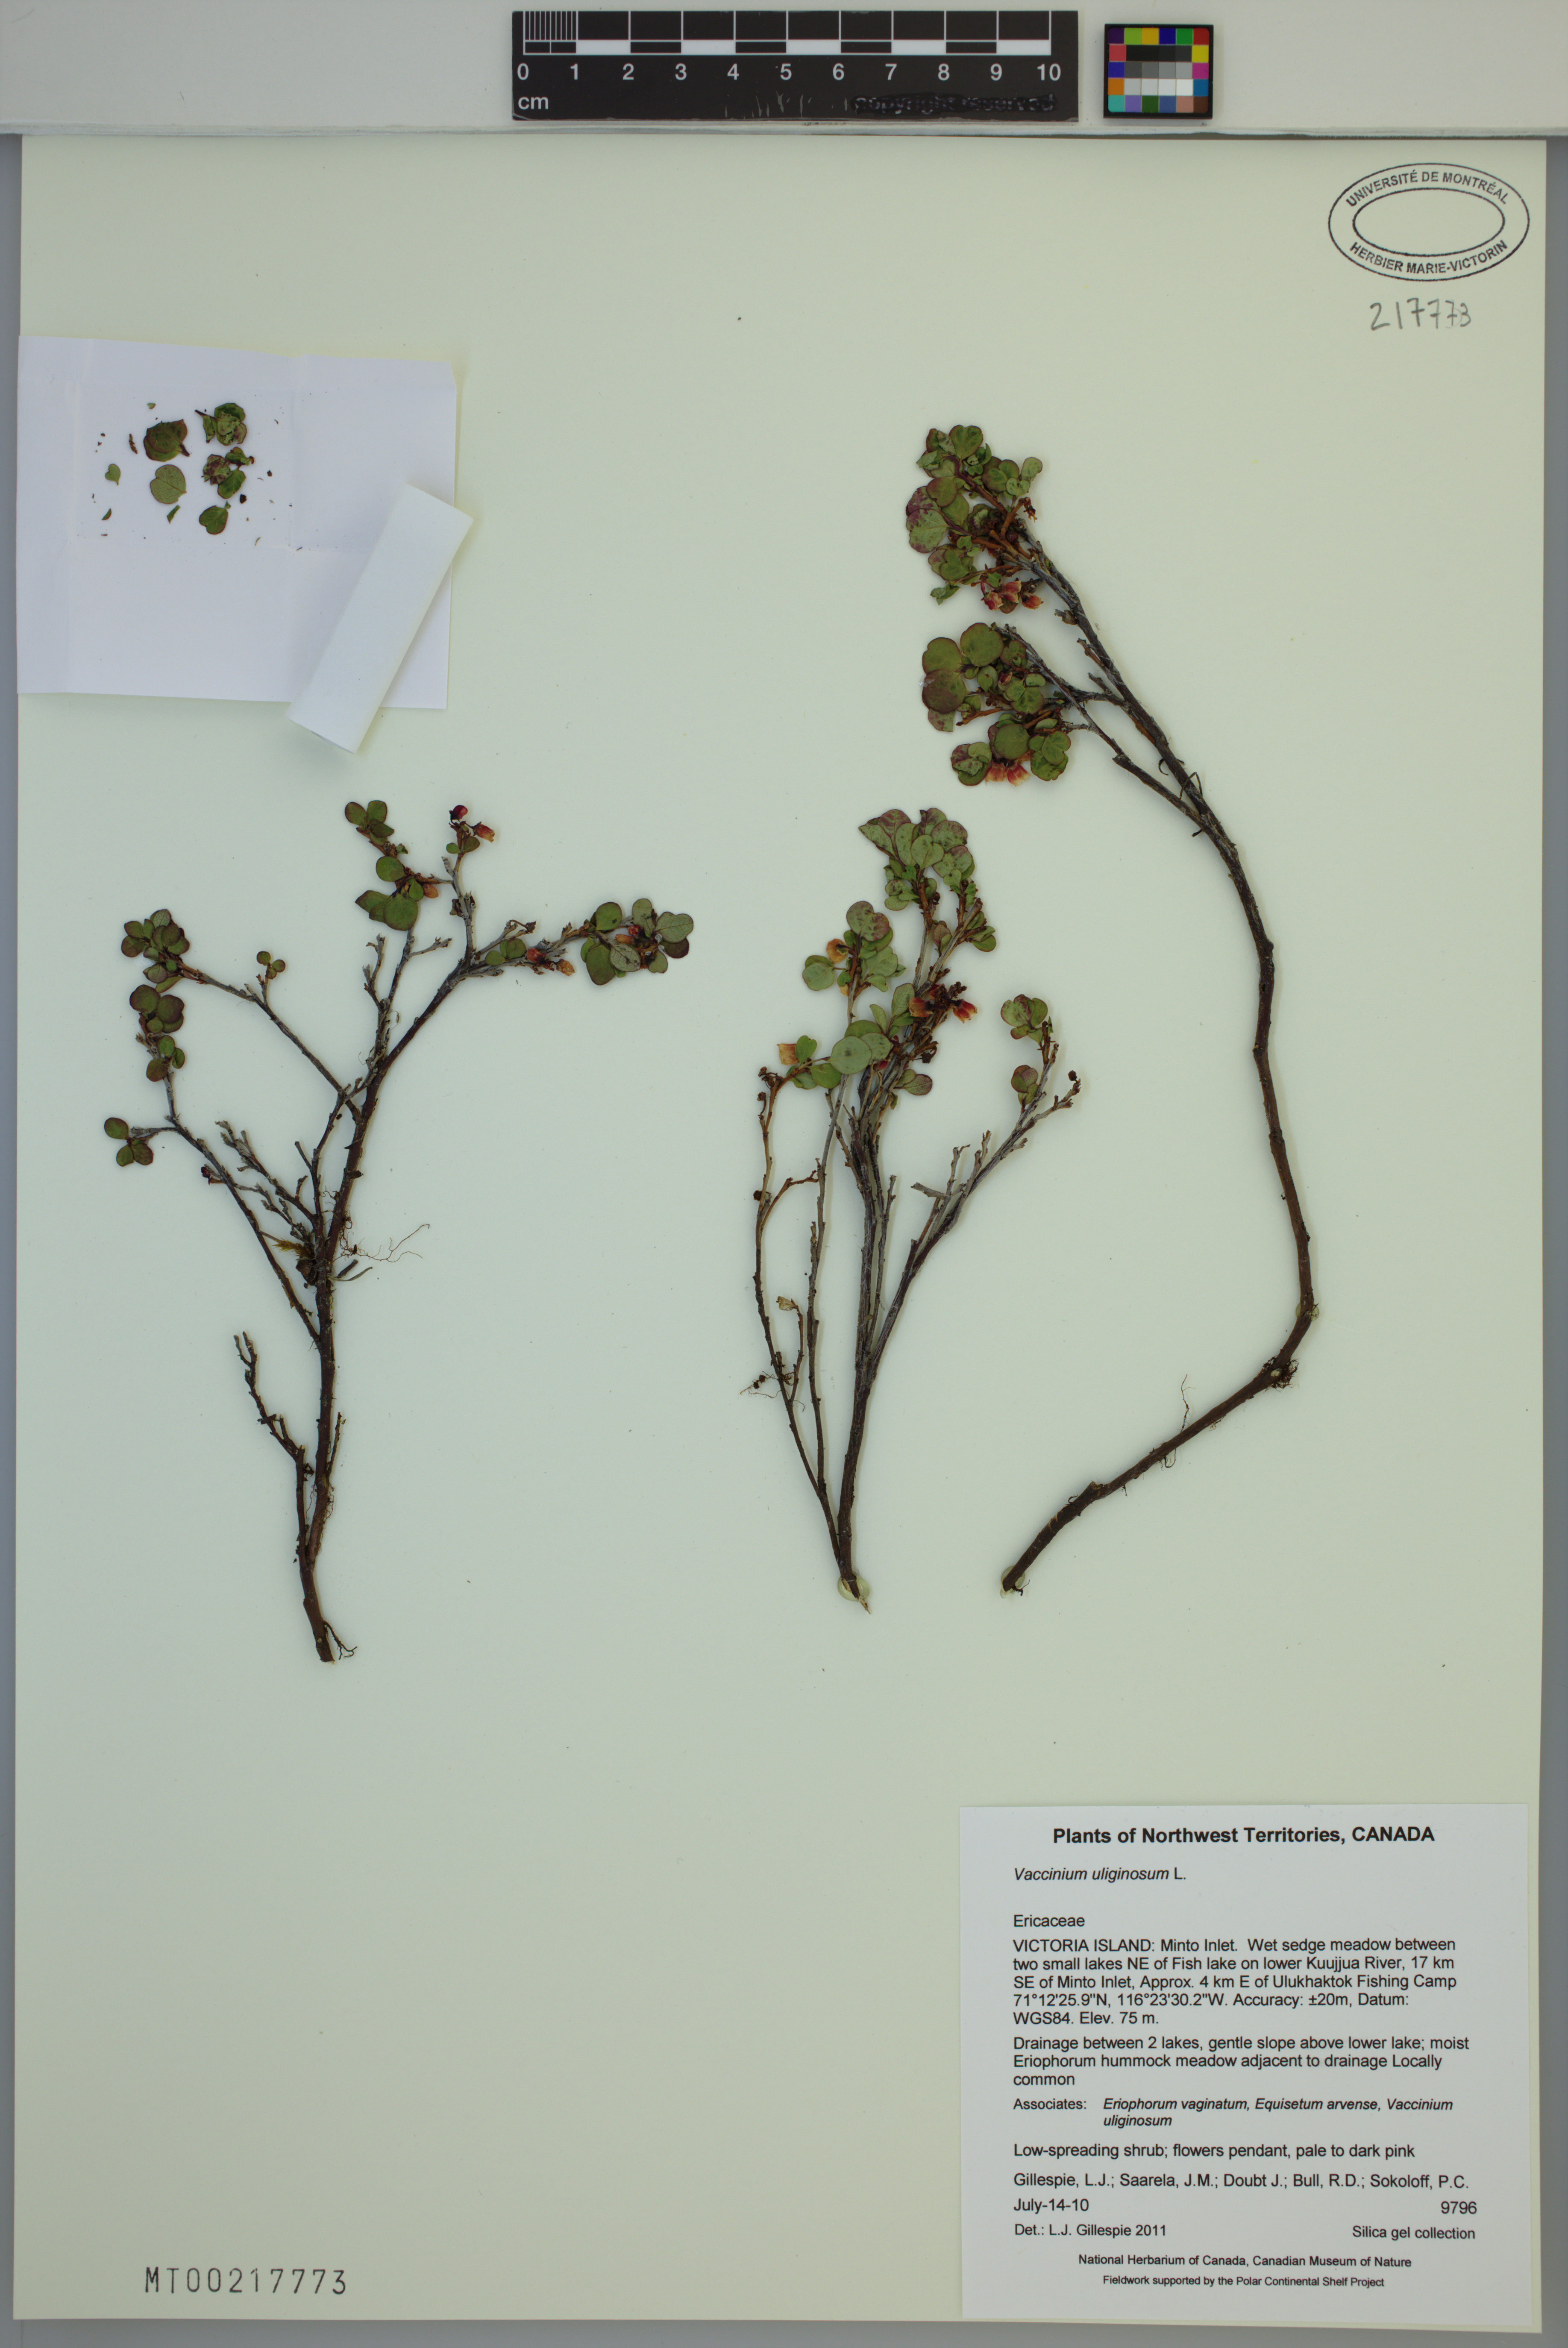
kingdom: Plantae
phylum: Tracheophyta
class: Magnoliopsida
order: Ericales
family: Ericaceae
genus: Vaccinium
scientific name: Vaccinium uliginosum
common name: Bog bilberry
